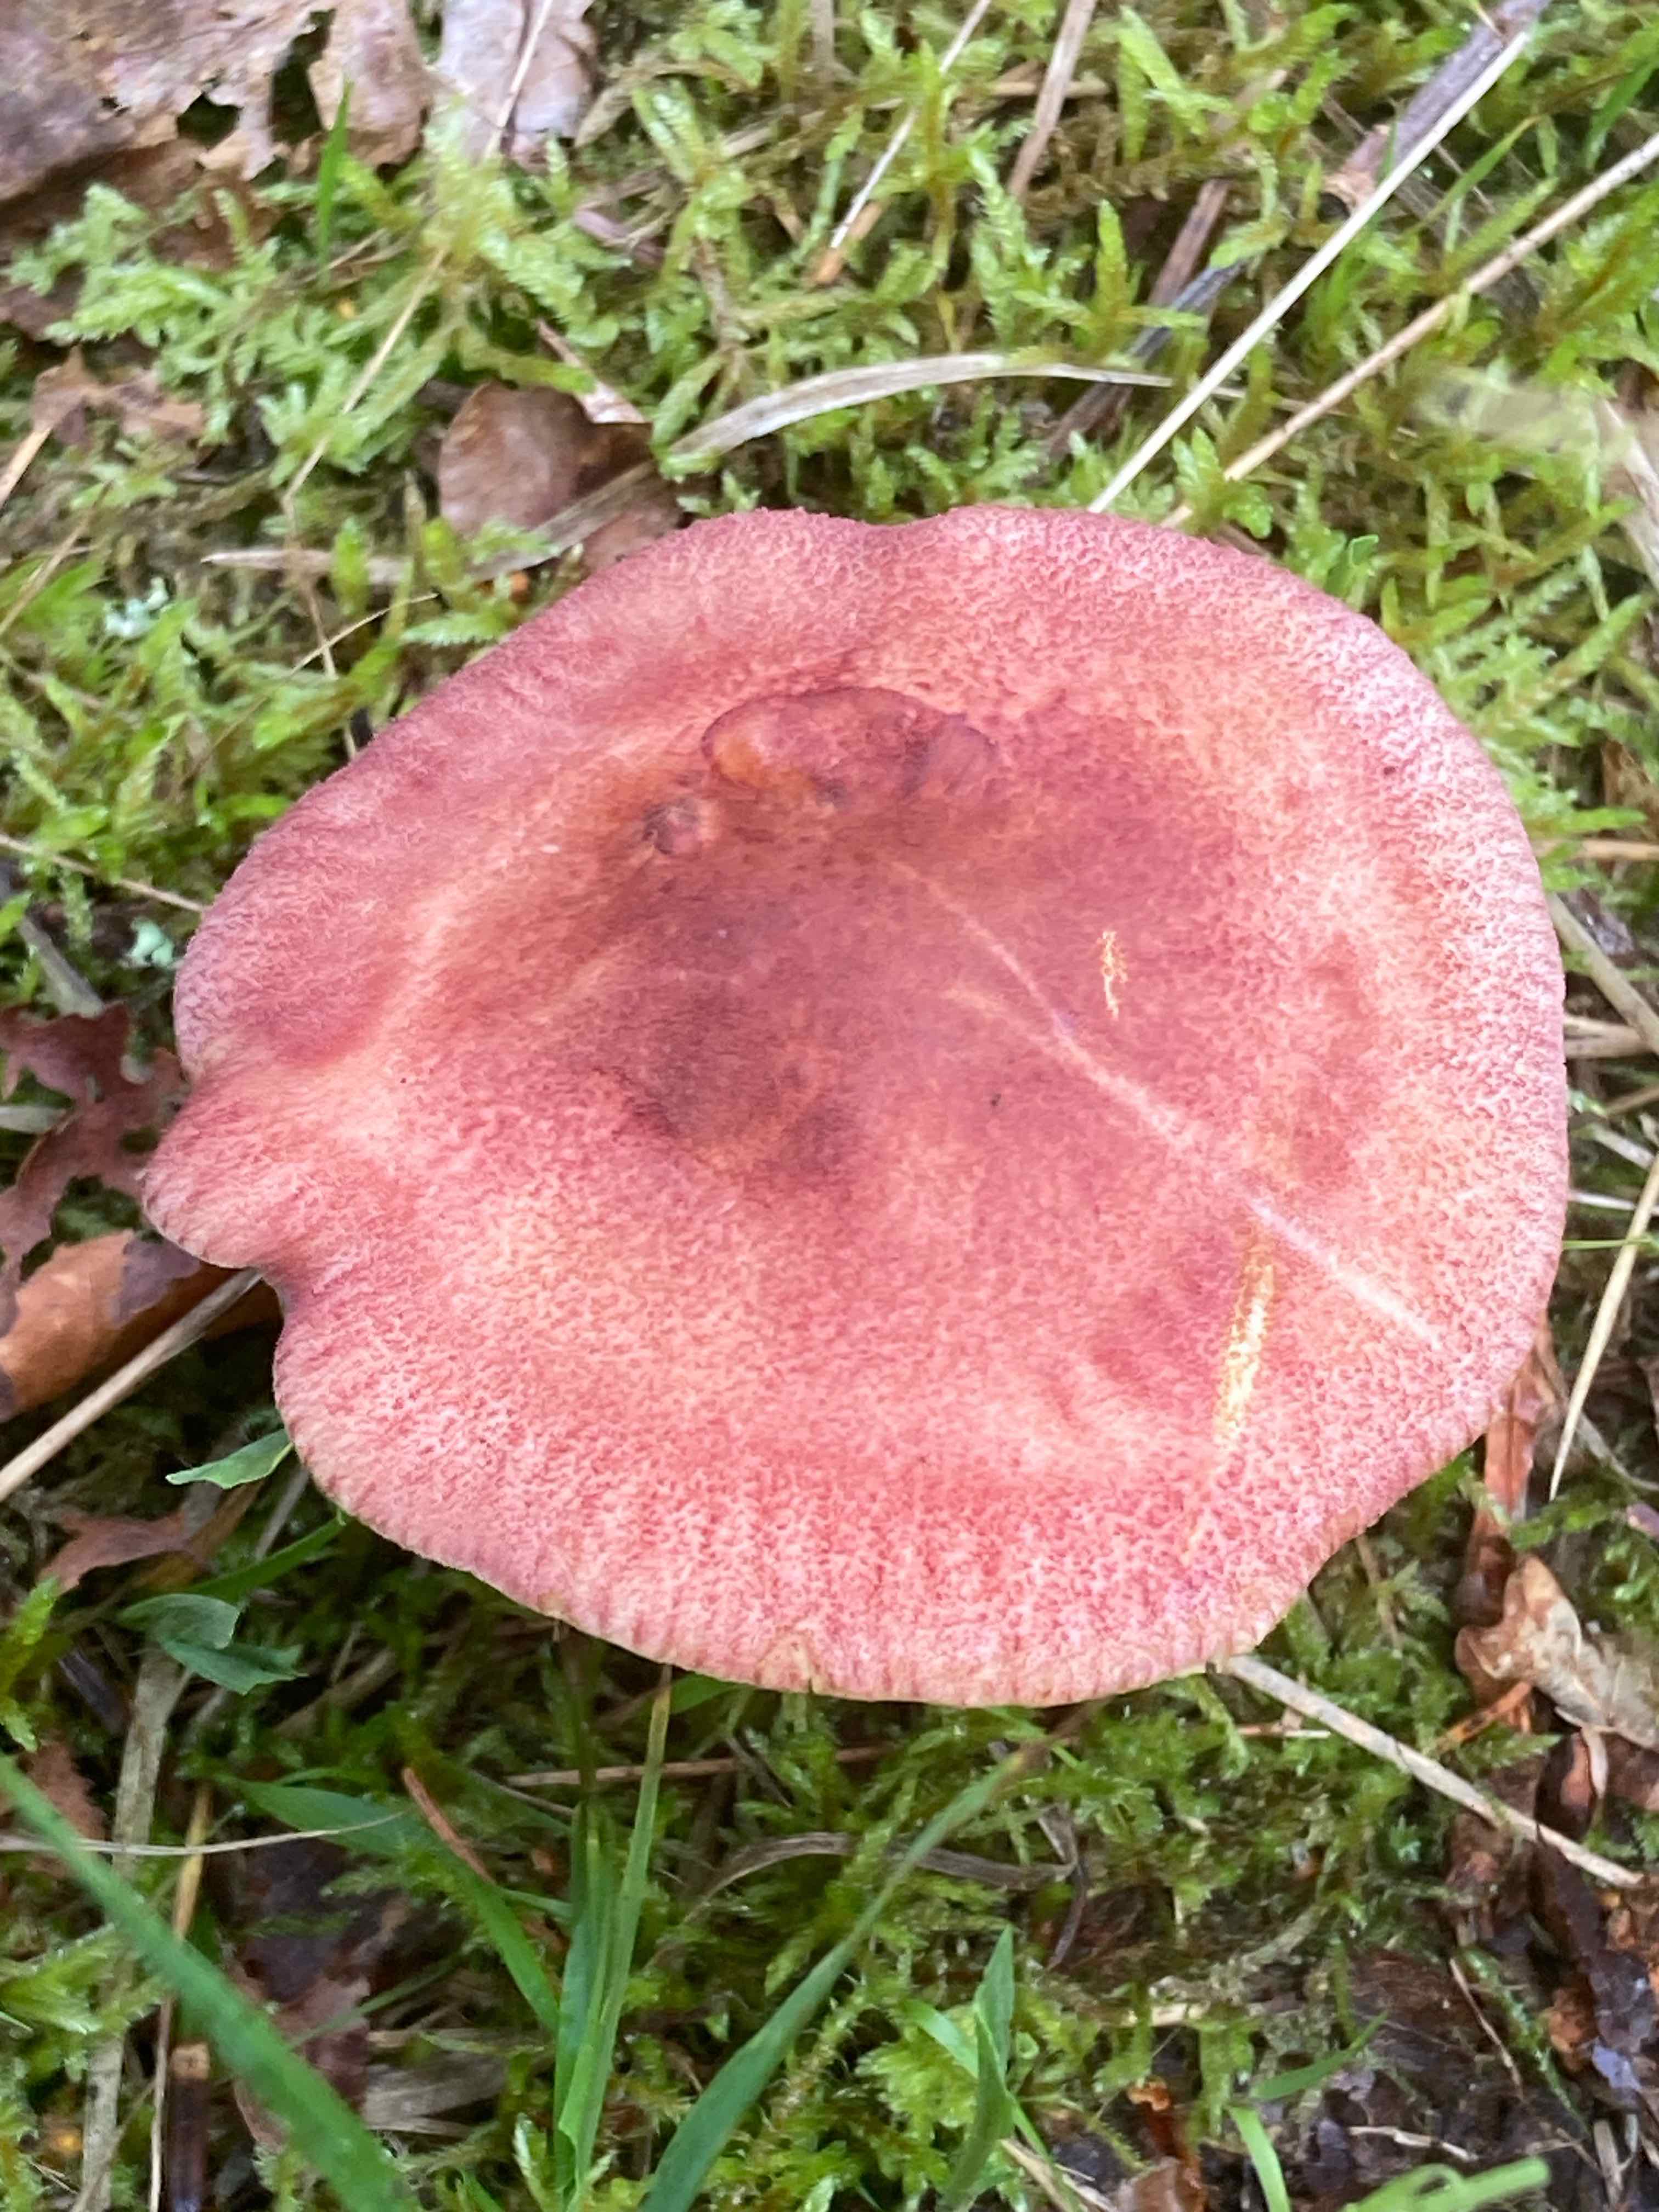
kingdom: Fungi
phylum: Basidiomycota
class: Agaricomycetes
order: Agaricales
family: Tricholomataceae
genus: Tricholomopsis
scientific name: Tricholomopsis rutilans
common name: purpur-væbnerhat
